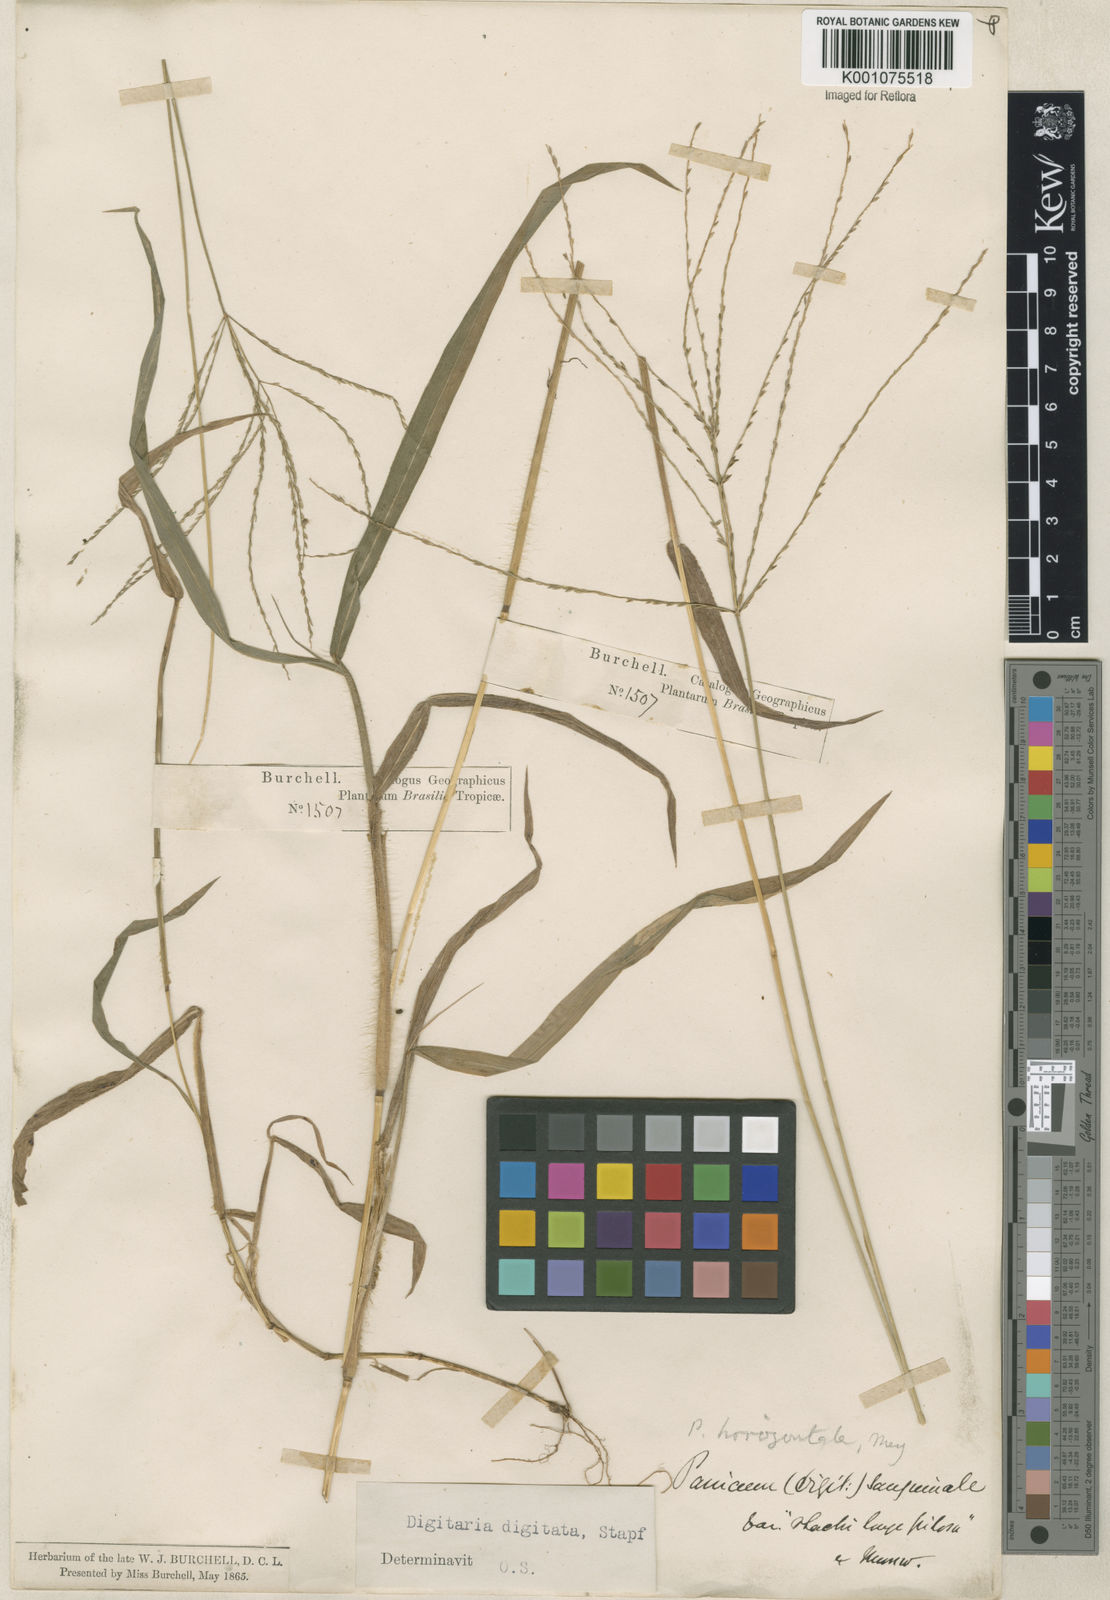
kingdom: Plantae
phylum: Tracheophyta
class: Liliopsida
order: Poales
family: Poaceae
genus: Digitaria
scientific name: Digitaria horizontalis
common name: Jamaican crabgrass
